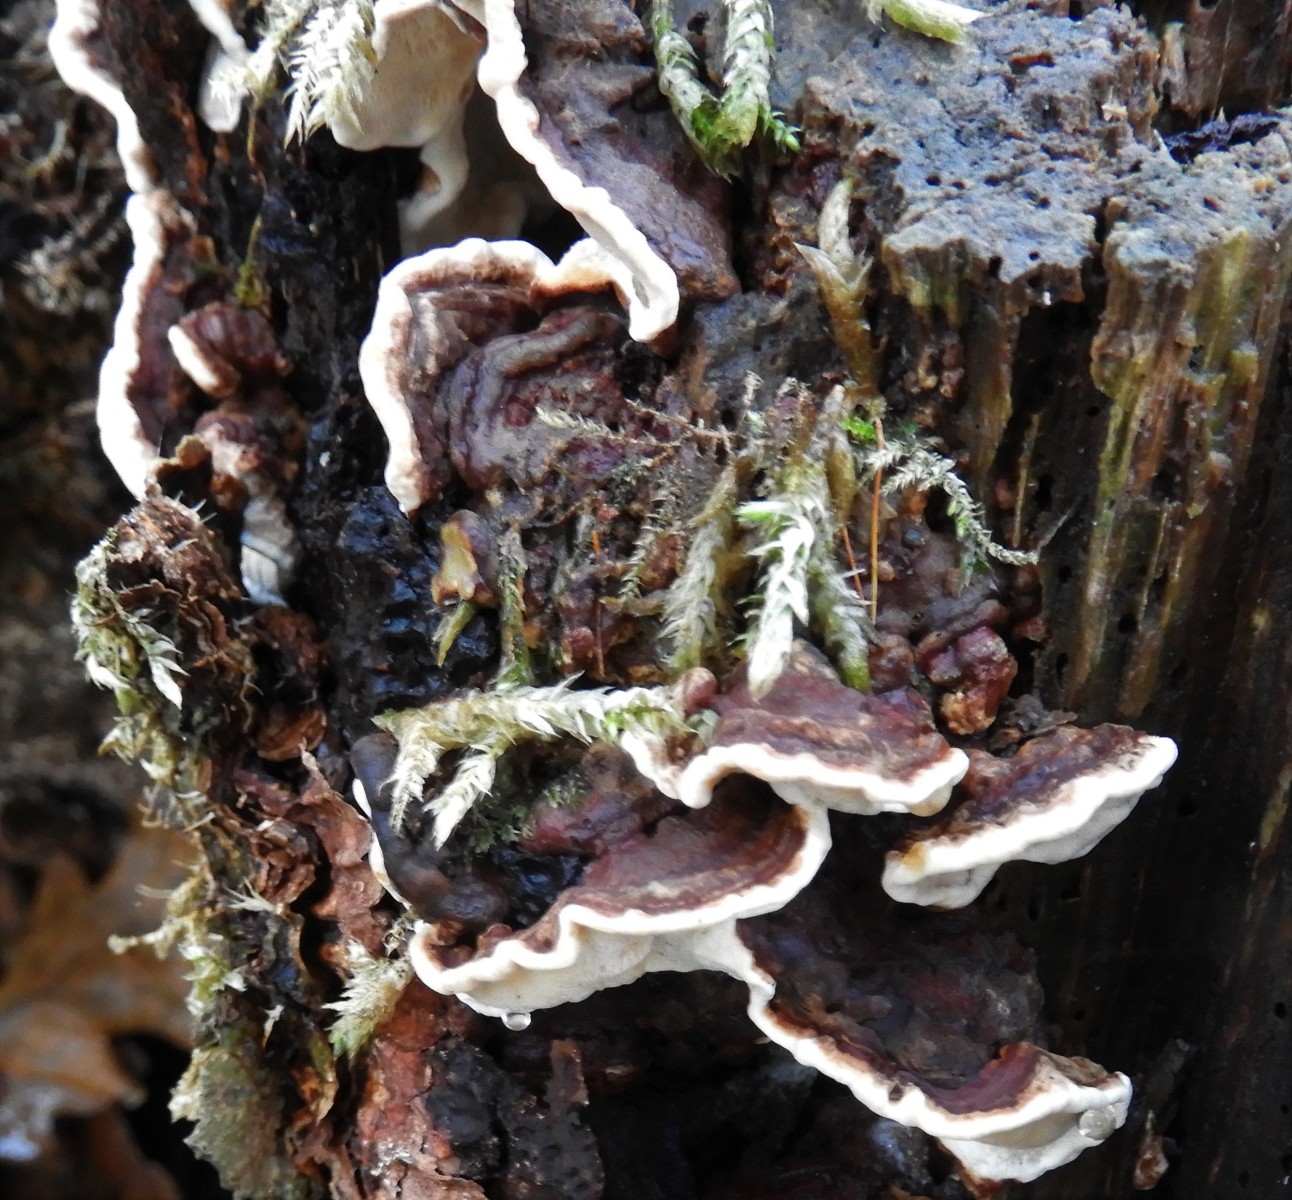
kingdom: Fungi
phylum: Basidiomycota
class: Agaricomycetes
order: Russulales
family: Bondarzewiaceae
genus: Heterobasidion
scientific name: Heterobasidion annosum
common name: almindelig rodfordærver
